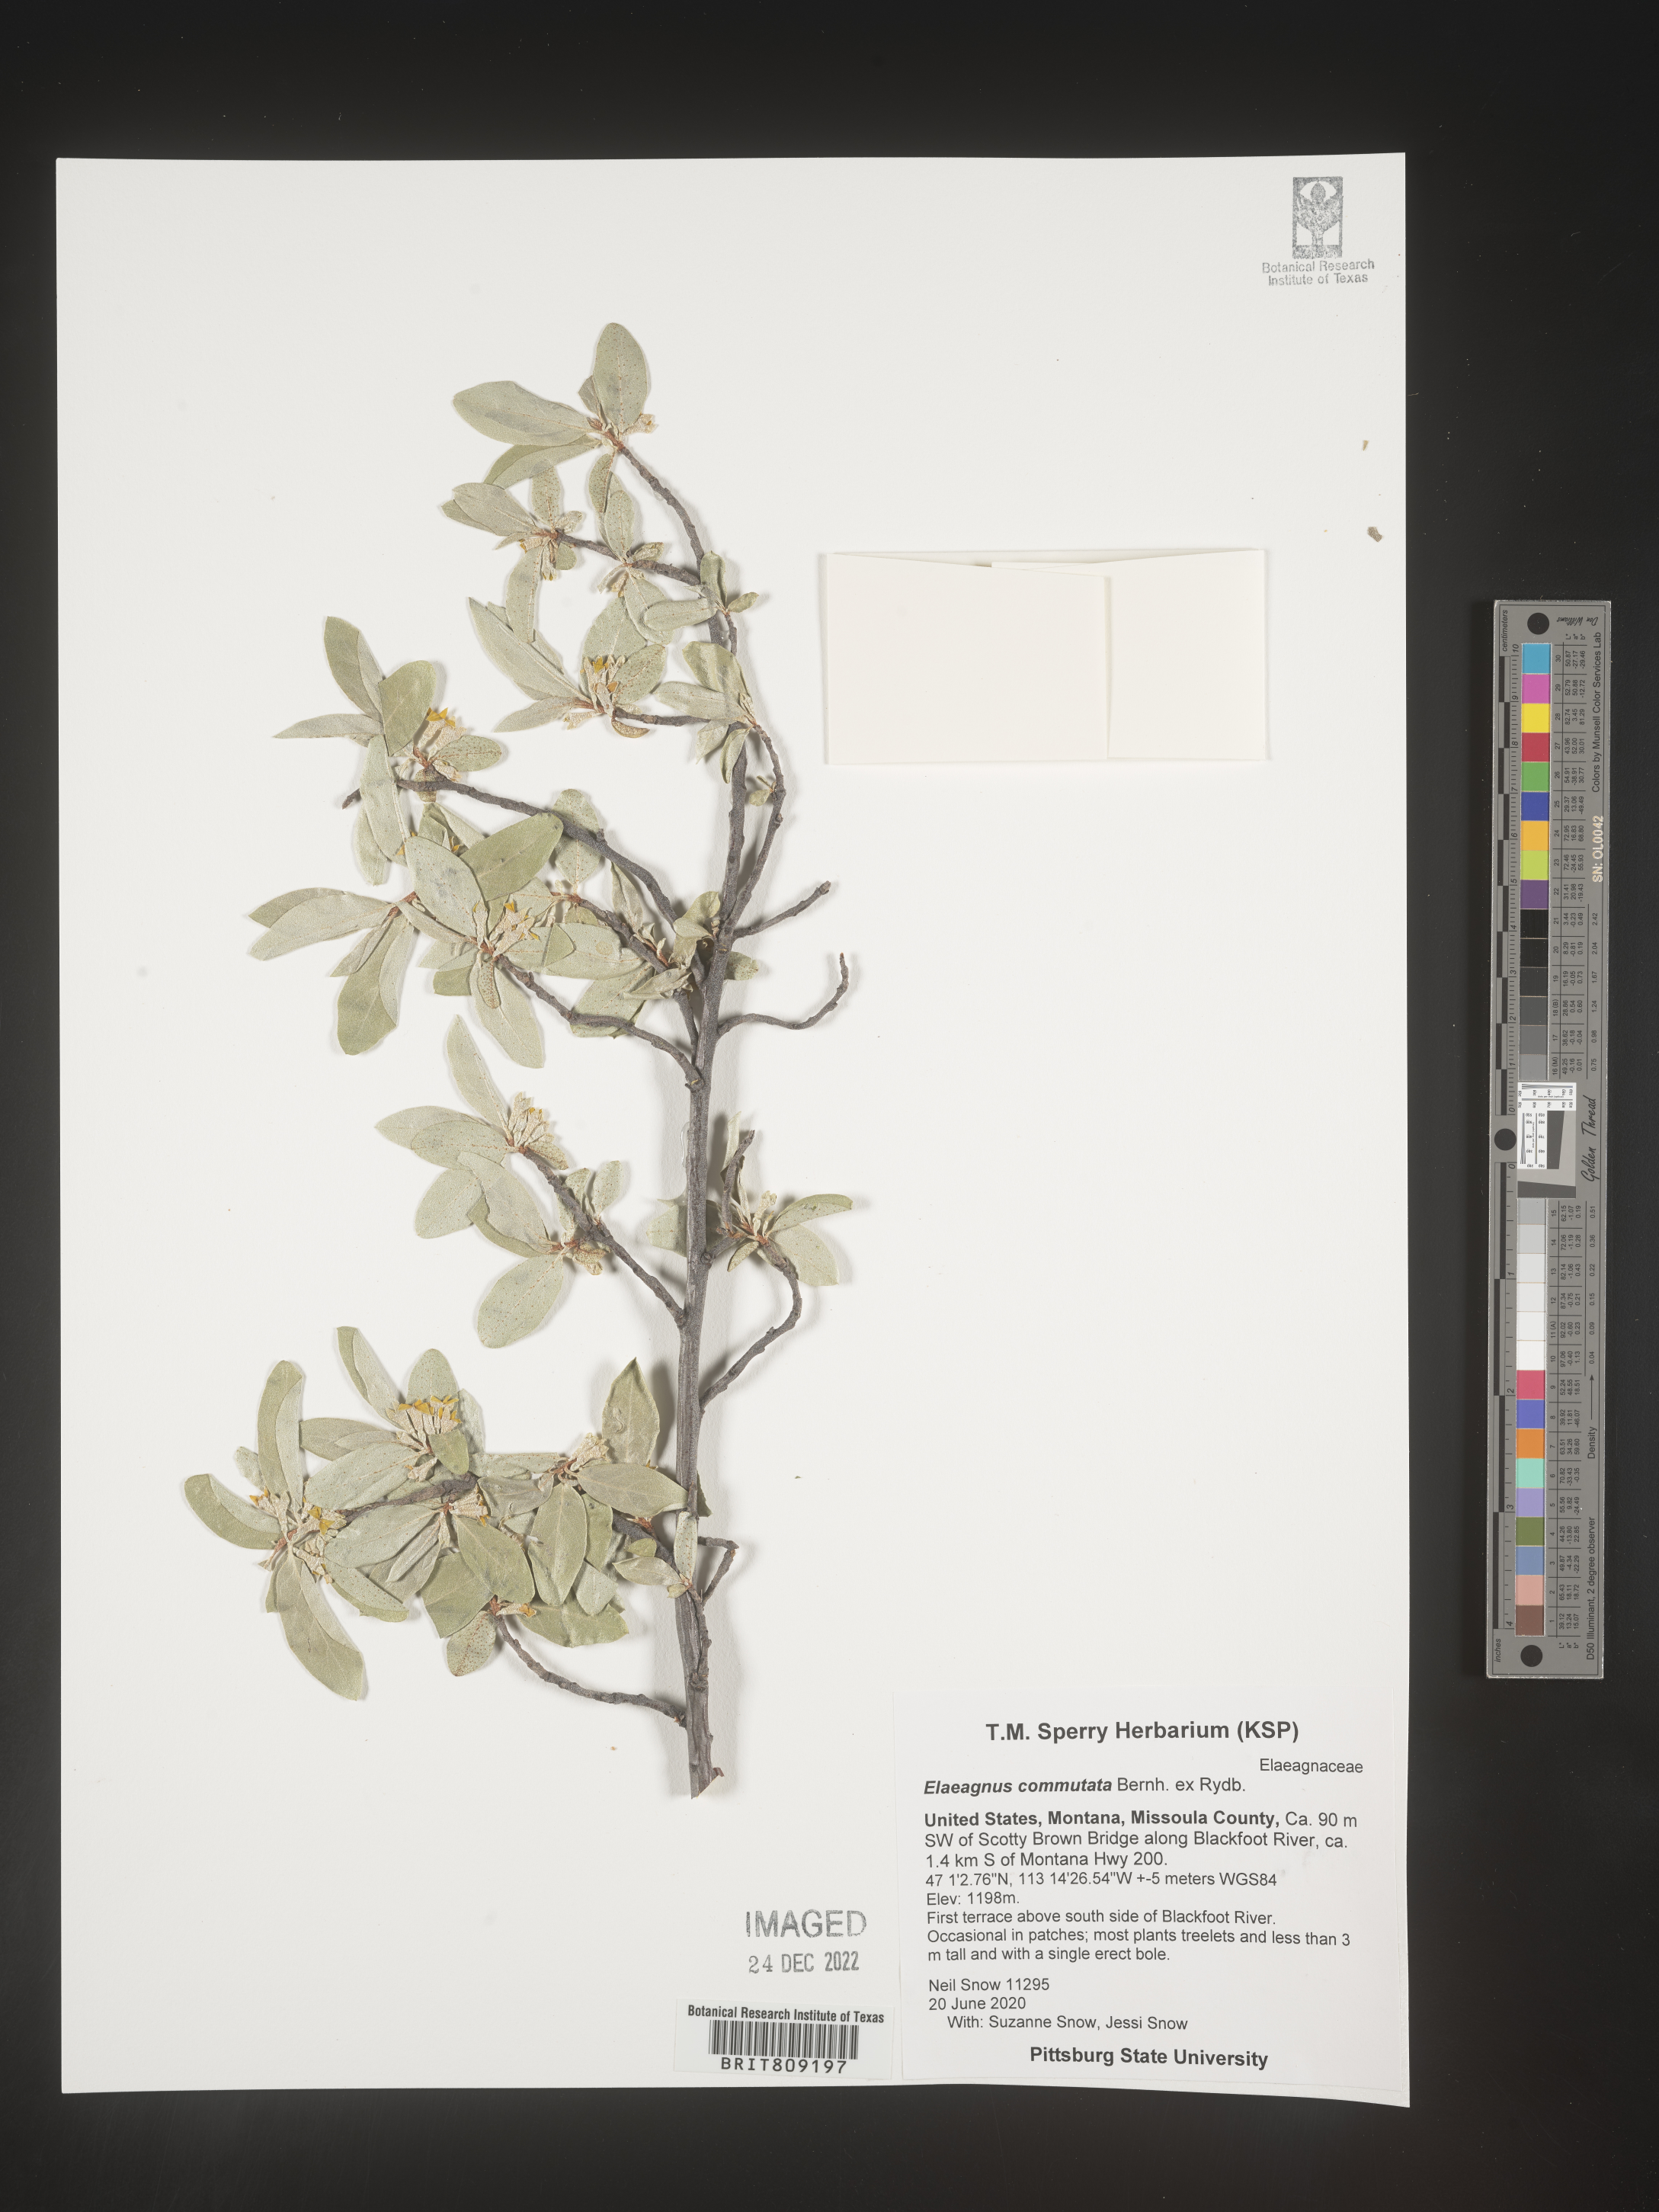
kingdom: Plantae
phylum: Tracheophyta
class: Magnoliopsida
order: Rosales
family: Elaeagnaceae
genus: Elaeagnus
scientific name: Elaeagnus
